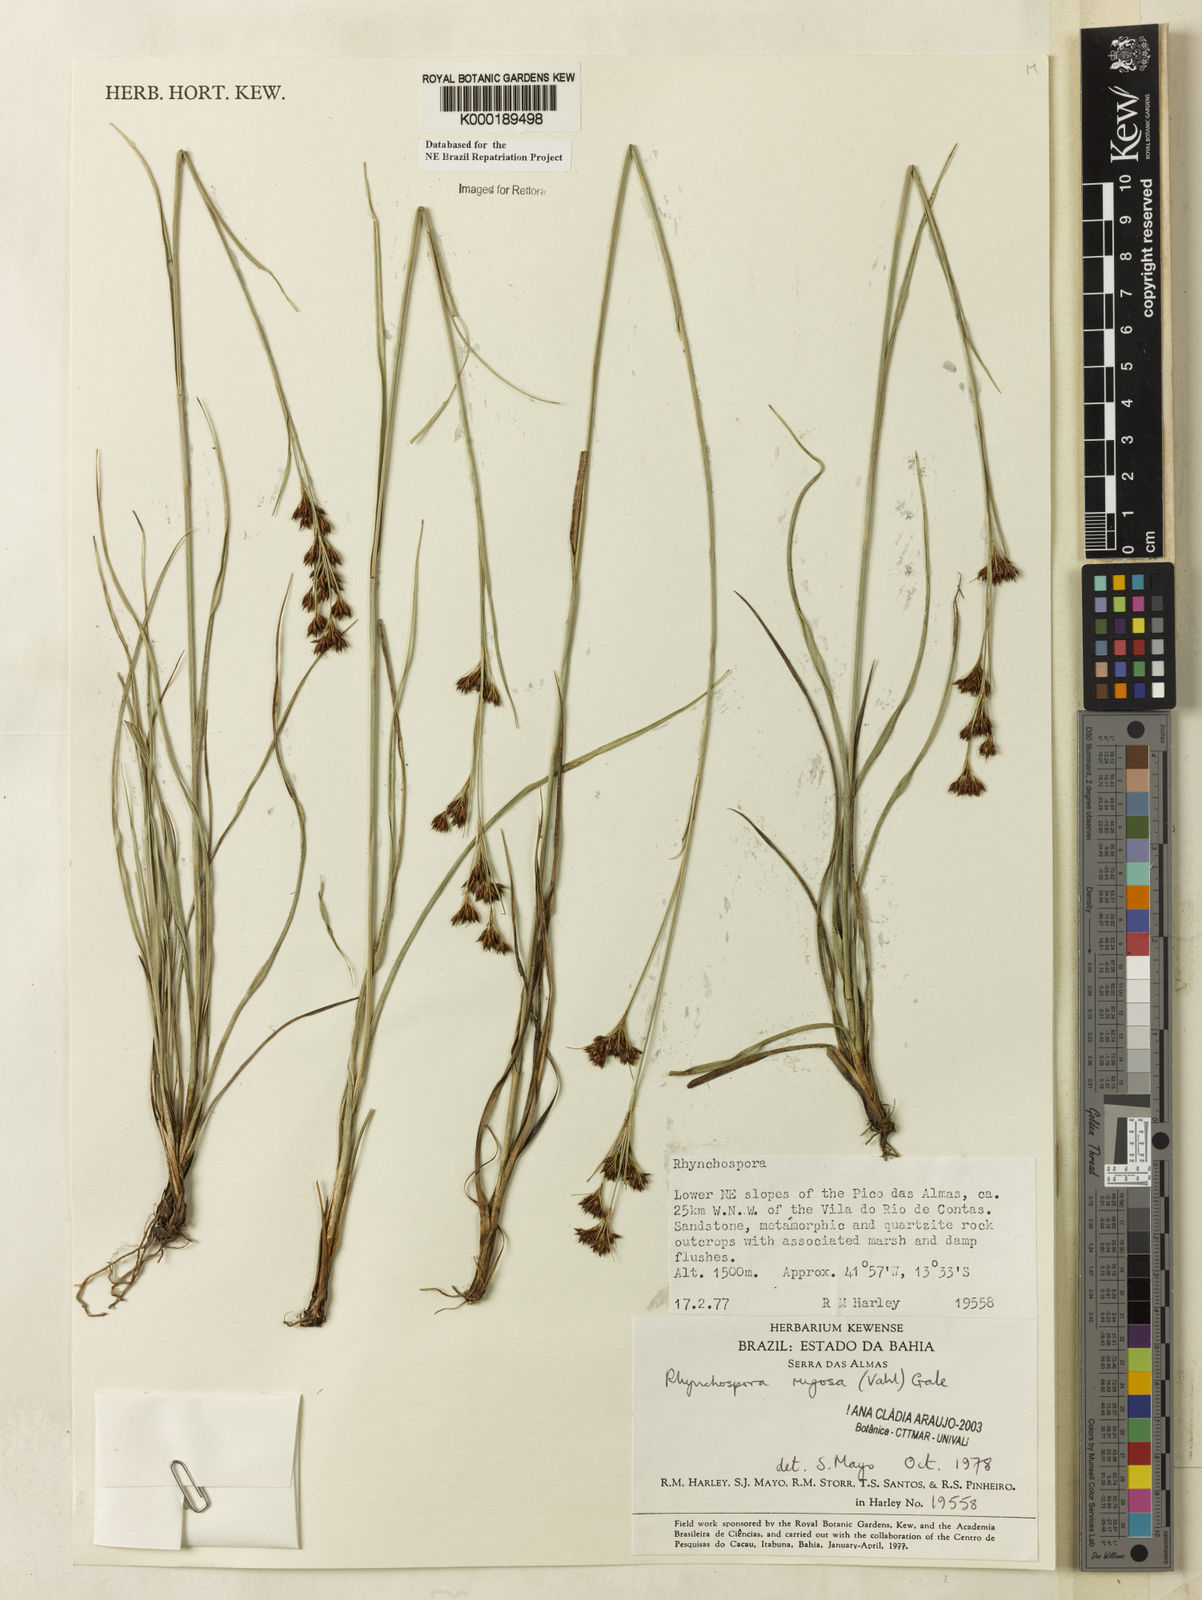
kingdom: Plantae
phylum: Tracheophyta
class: Liliopsida
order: Poales
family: Cyperaceae
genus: Rhynchospora
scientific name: Rhynchospora rugosa
